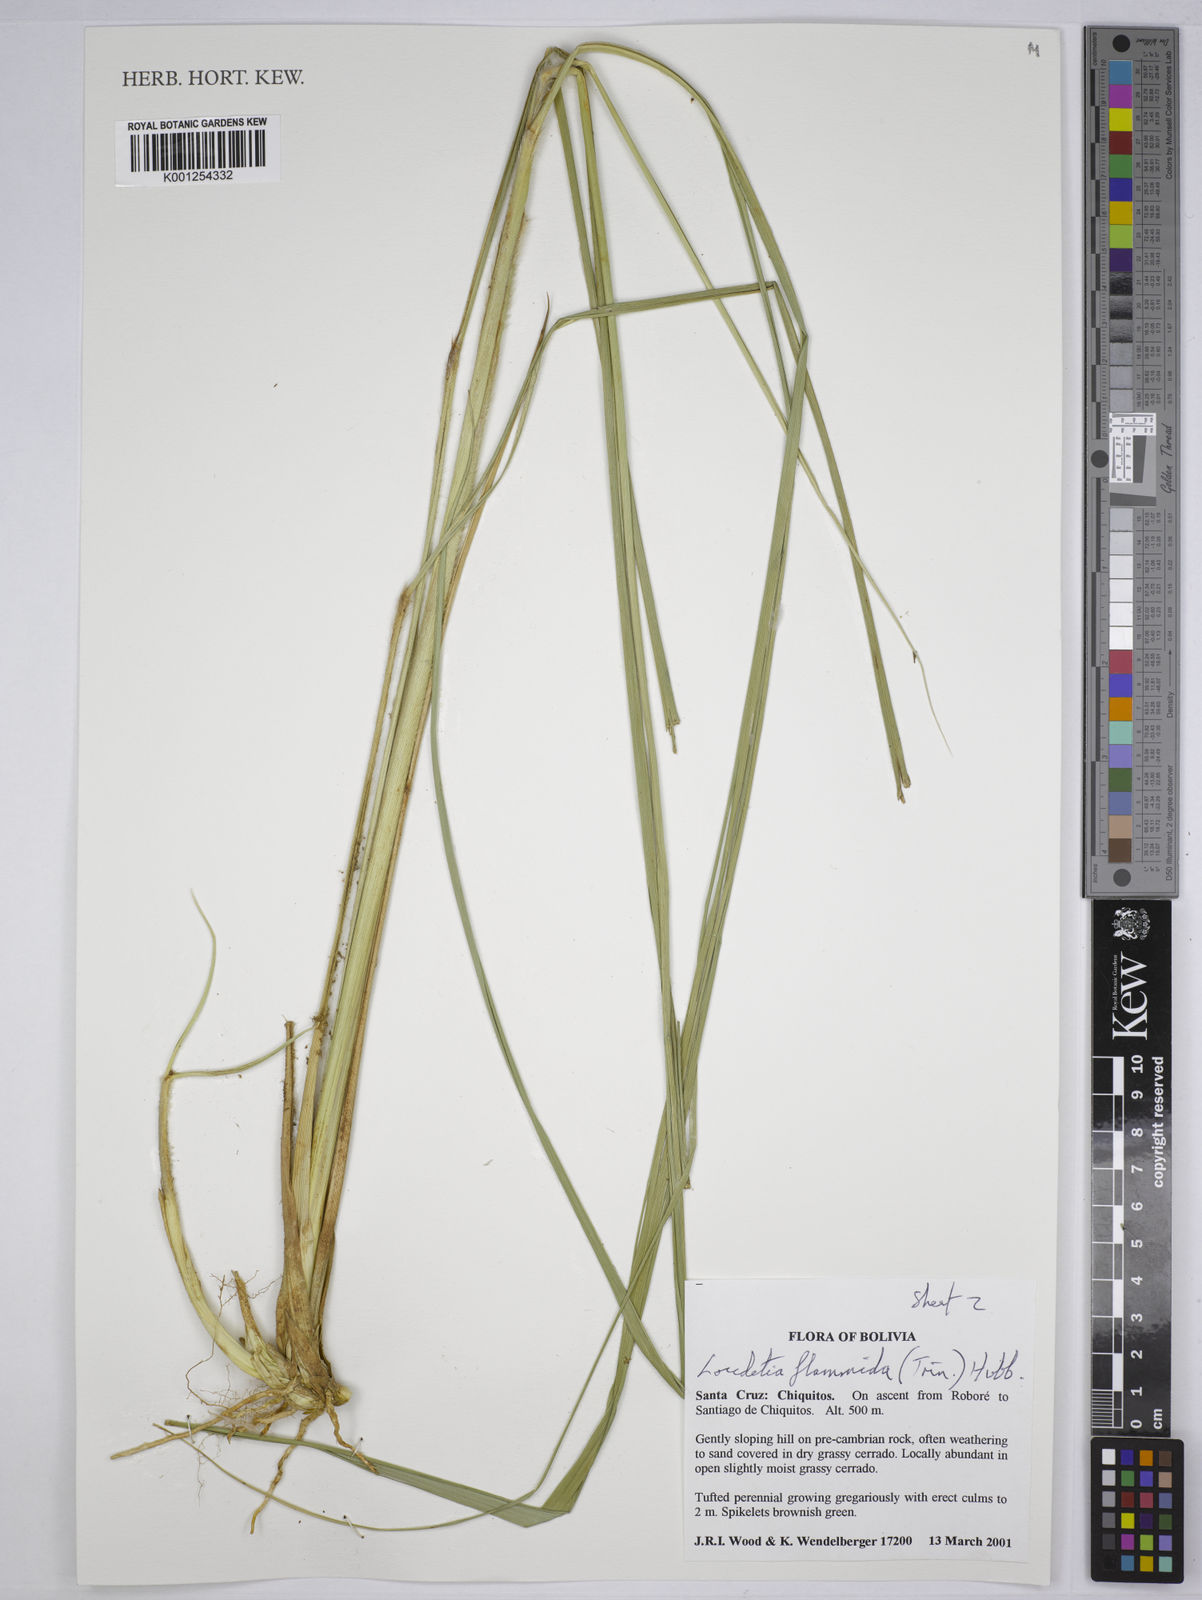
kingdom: Plantae
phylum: Tracheophyta
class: Liliopsida
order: Poales
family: Poaceae
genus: Loudetia
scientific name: Loudetia flammida
